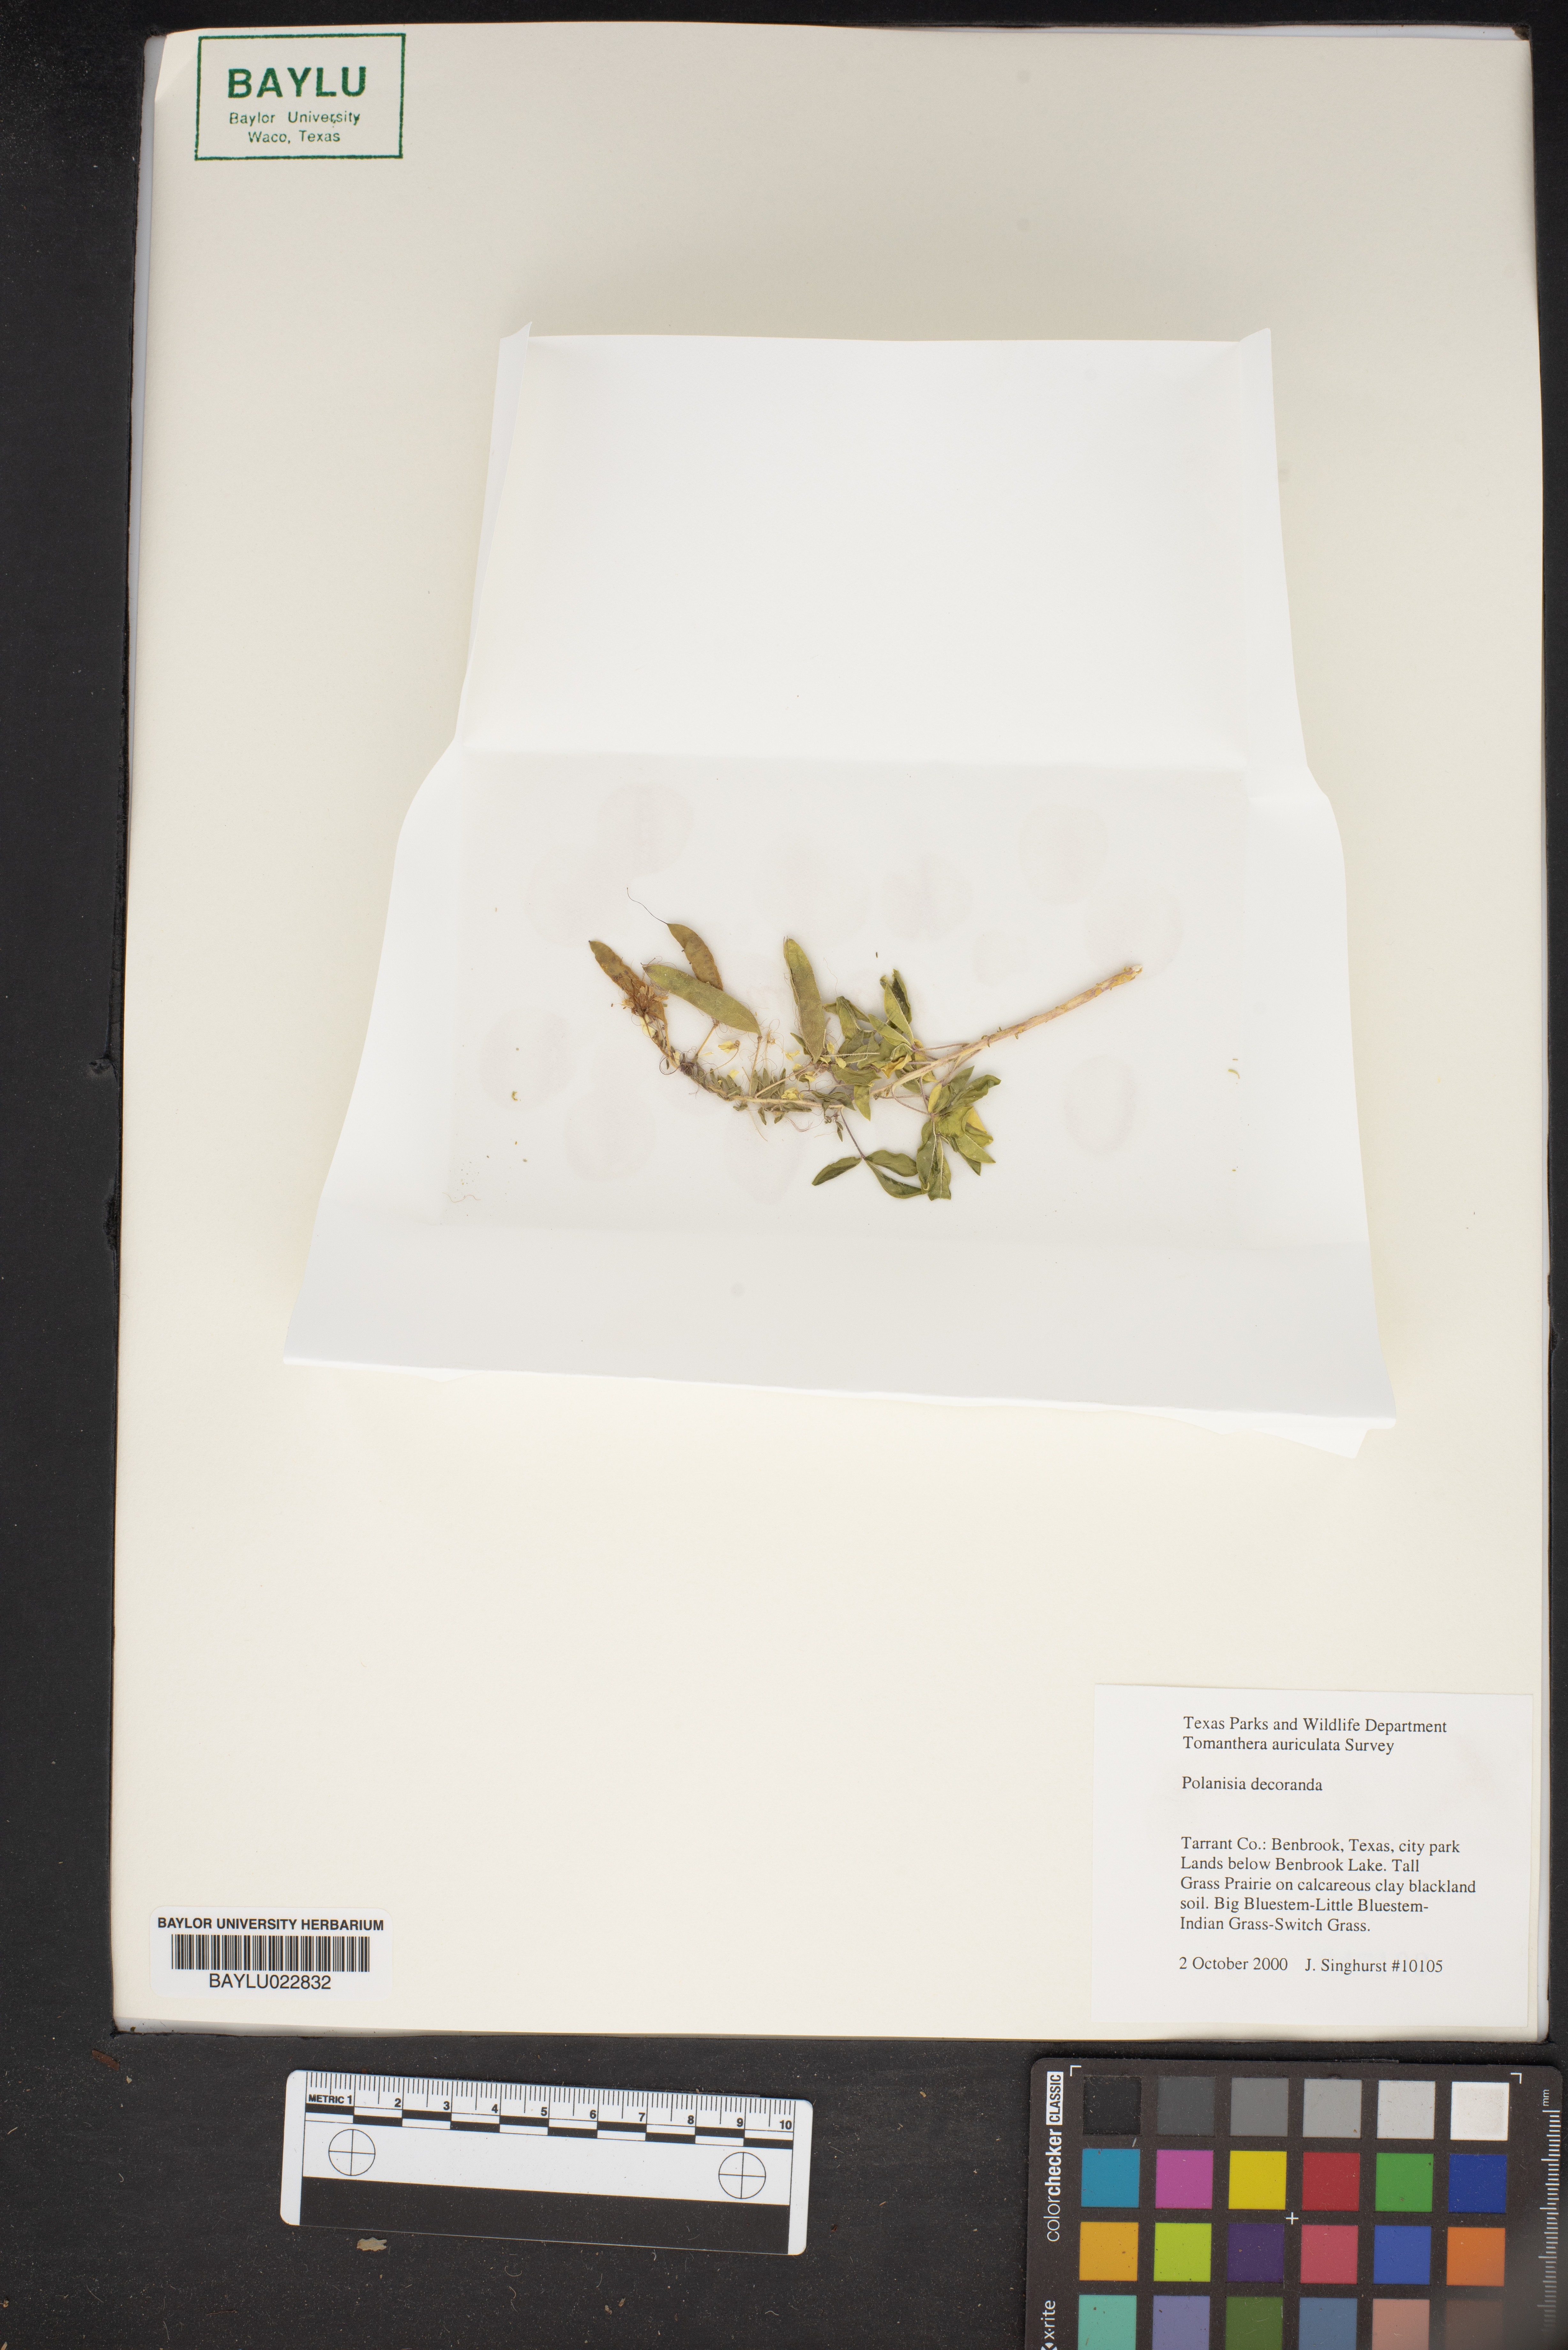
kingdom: Plantae
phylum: Tracheophyta
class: Magnoliopsida
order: Brassicales
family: Cleomaceae
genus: Polanisia
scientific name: Polanisia dodecandra
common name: Clammyweed
